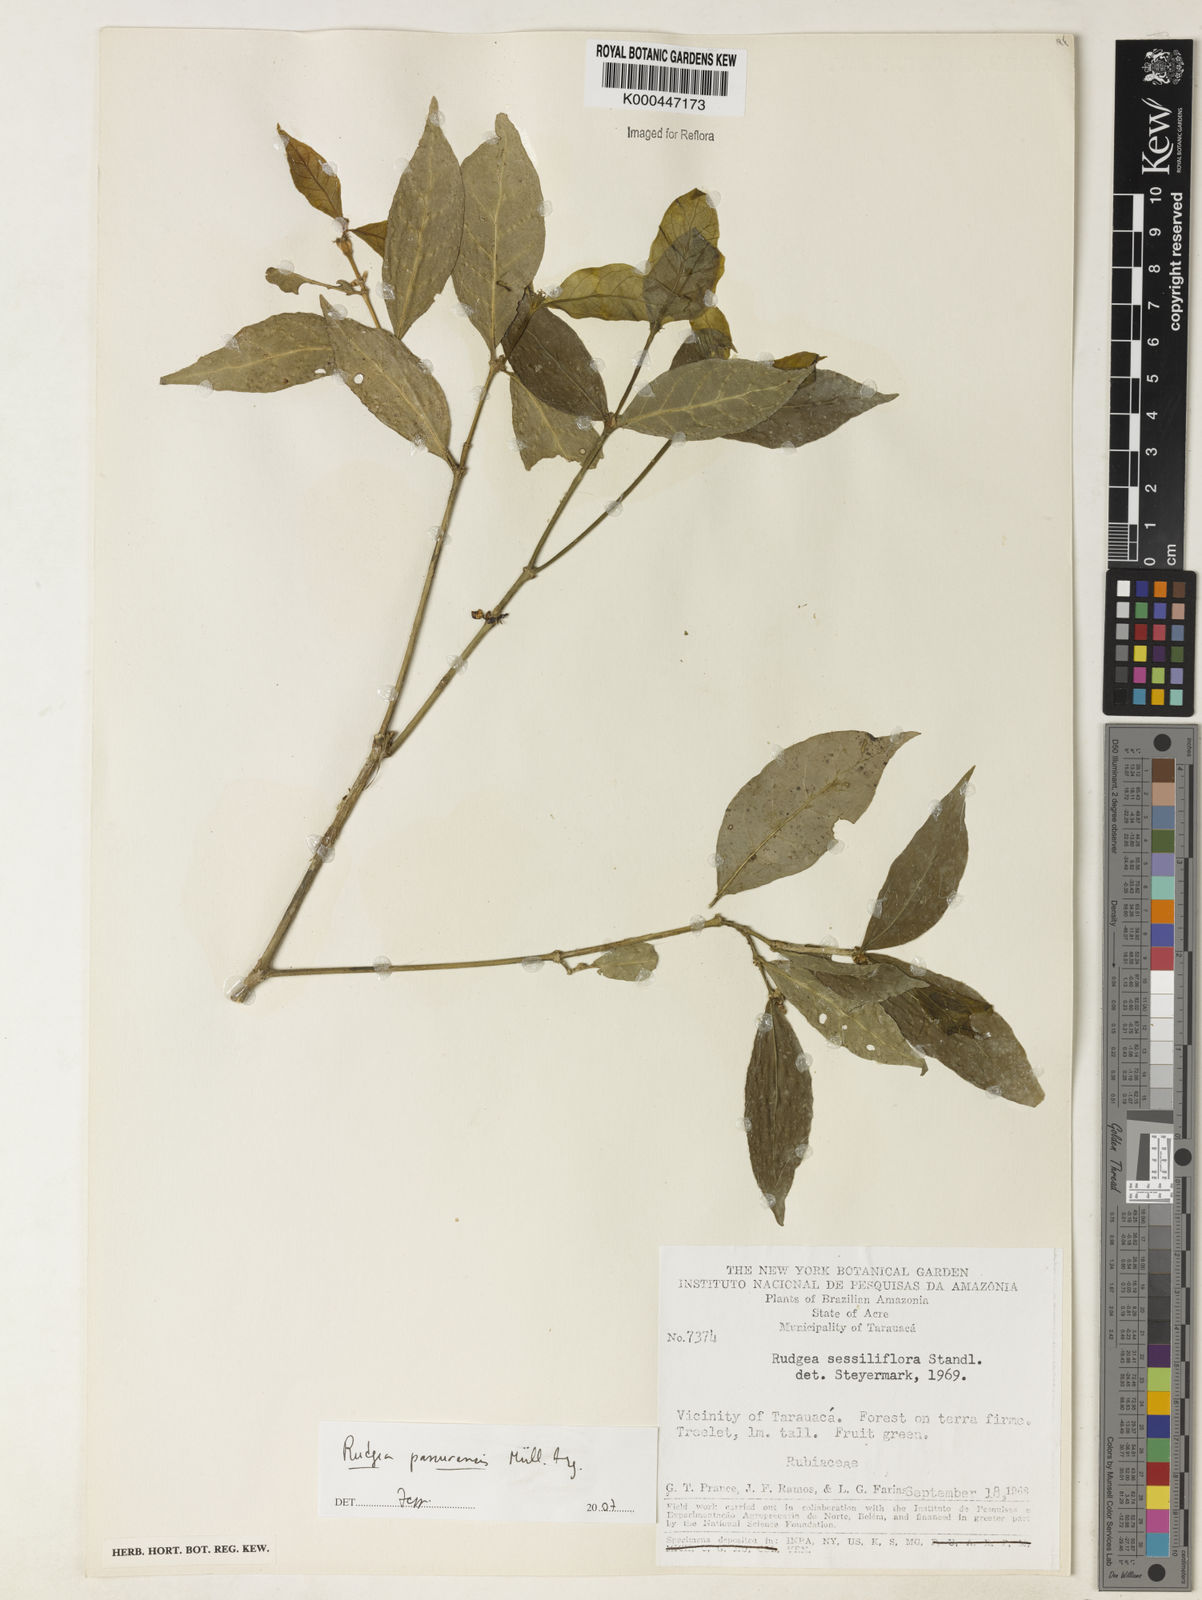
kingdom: Plantae
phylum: Tracheophyta
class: Magnoliopsida
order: Gentianales
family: Rubiaceae
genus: Rudgea
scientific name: Rudgea panurensis
